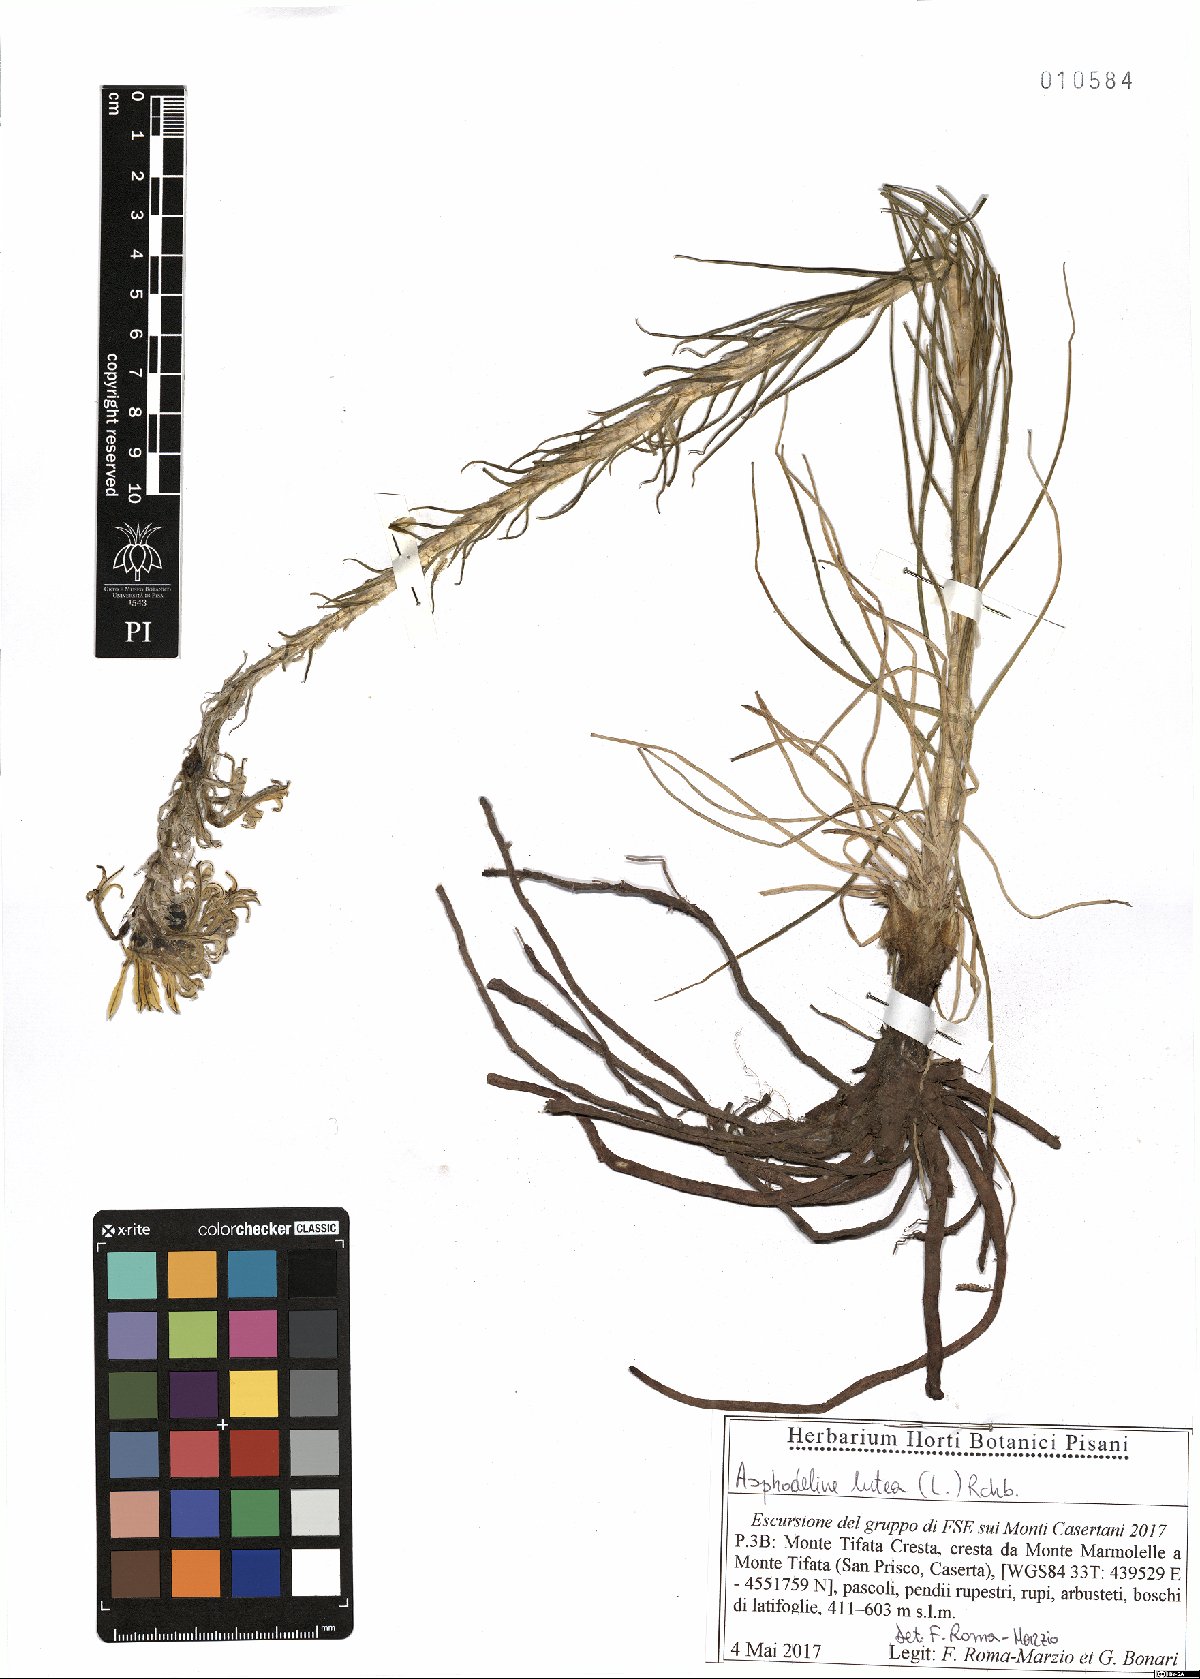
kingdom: Plantae
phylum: Tracheophyta
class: Liliopsida
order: Asparagales
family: Asphodelaceae
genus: Asphodeline
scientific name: Asphodeline lutea
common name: Yellow asphodel
